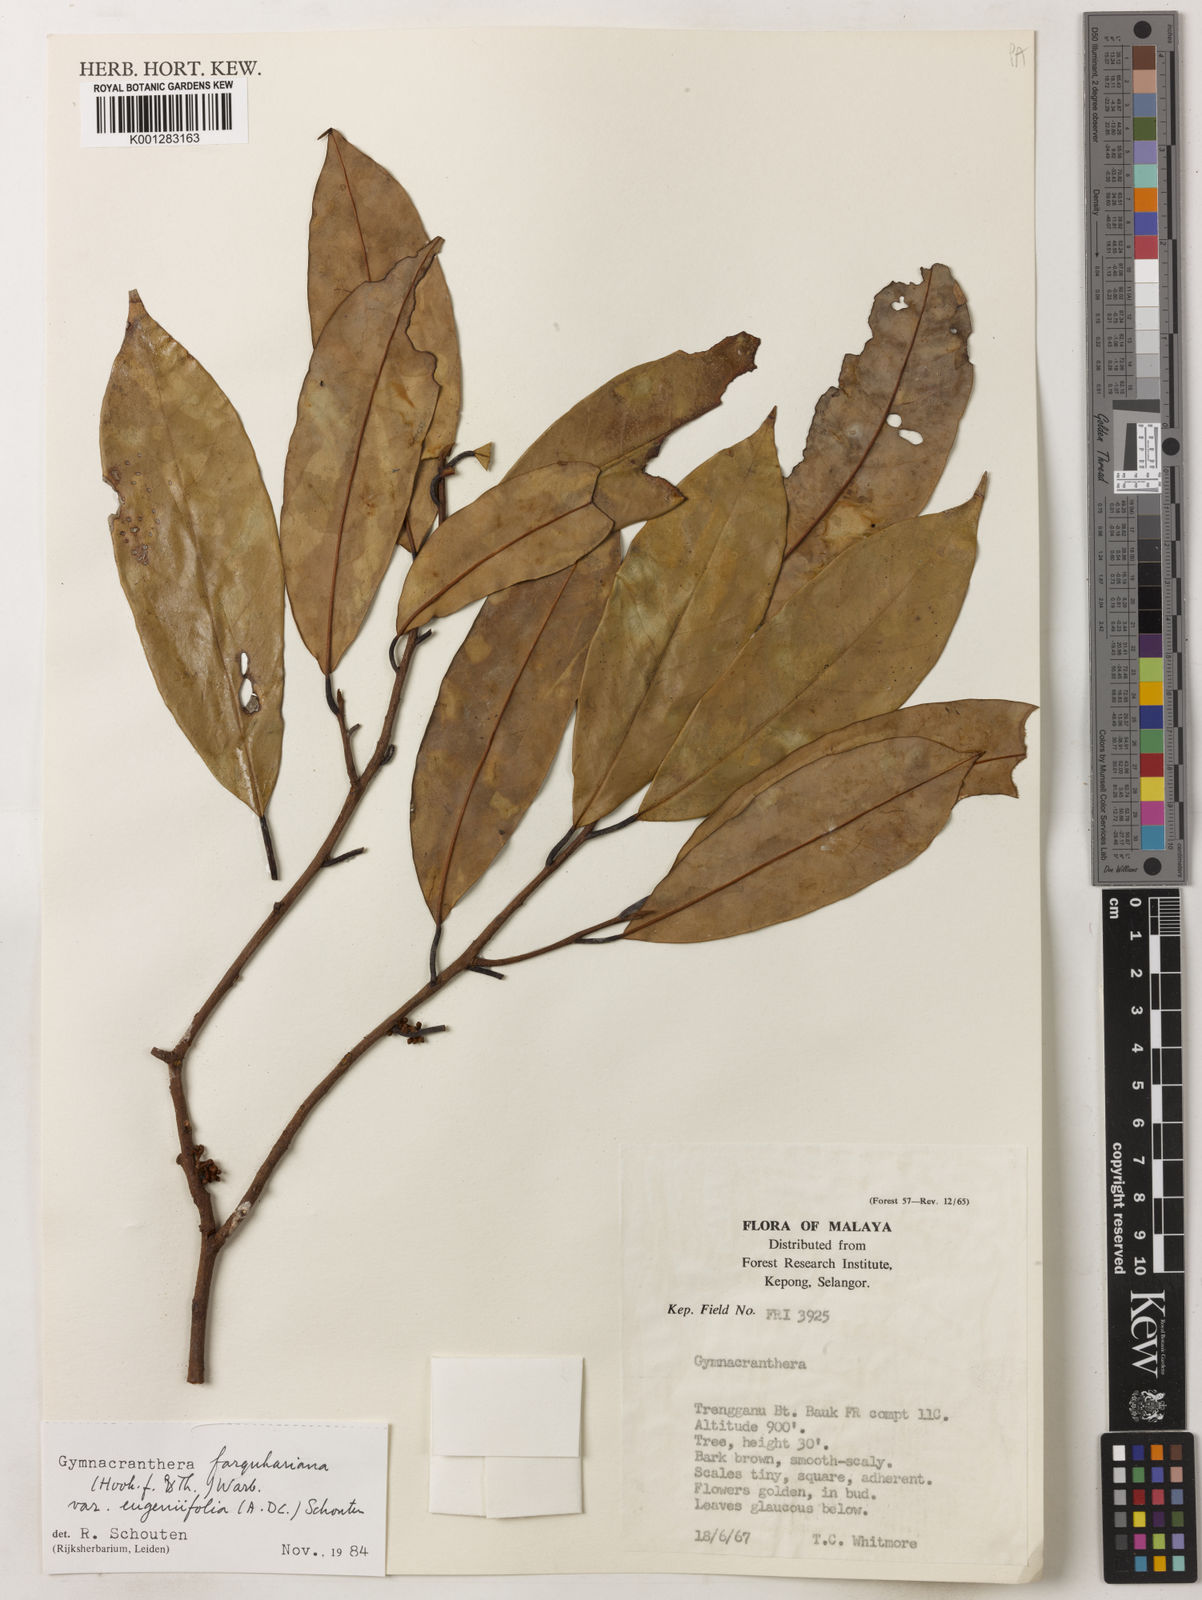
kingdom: Plantae
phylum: Tracheophyta
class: Magnoliopsida
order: Magnoliales
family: Myristicaceae
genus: Gymnacranthera
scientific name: Gymnacranthera farquhariana
